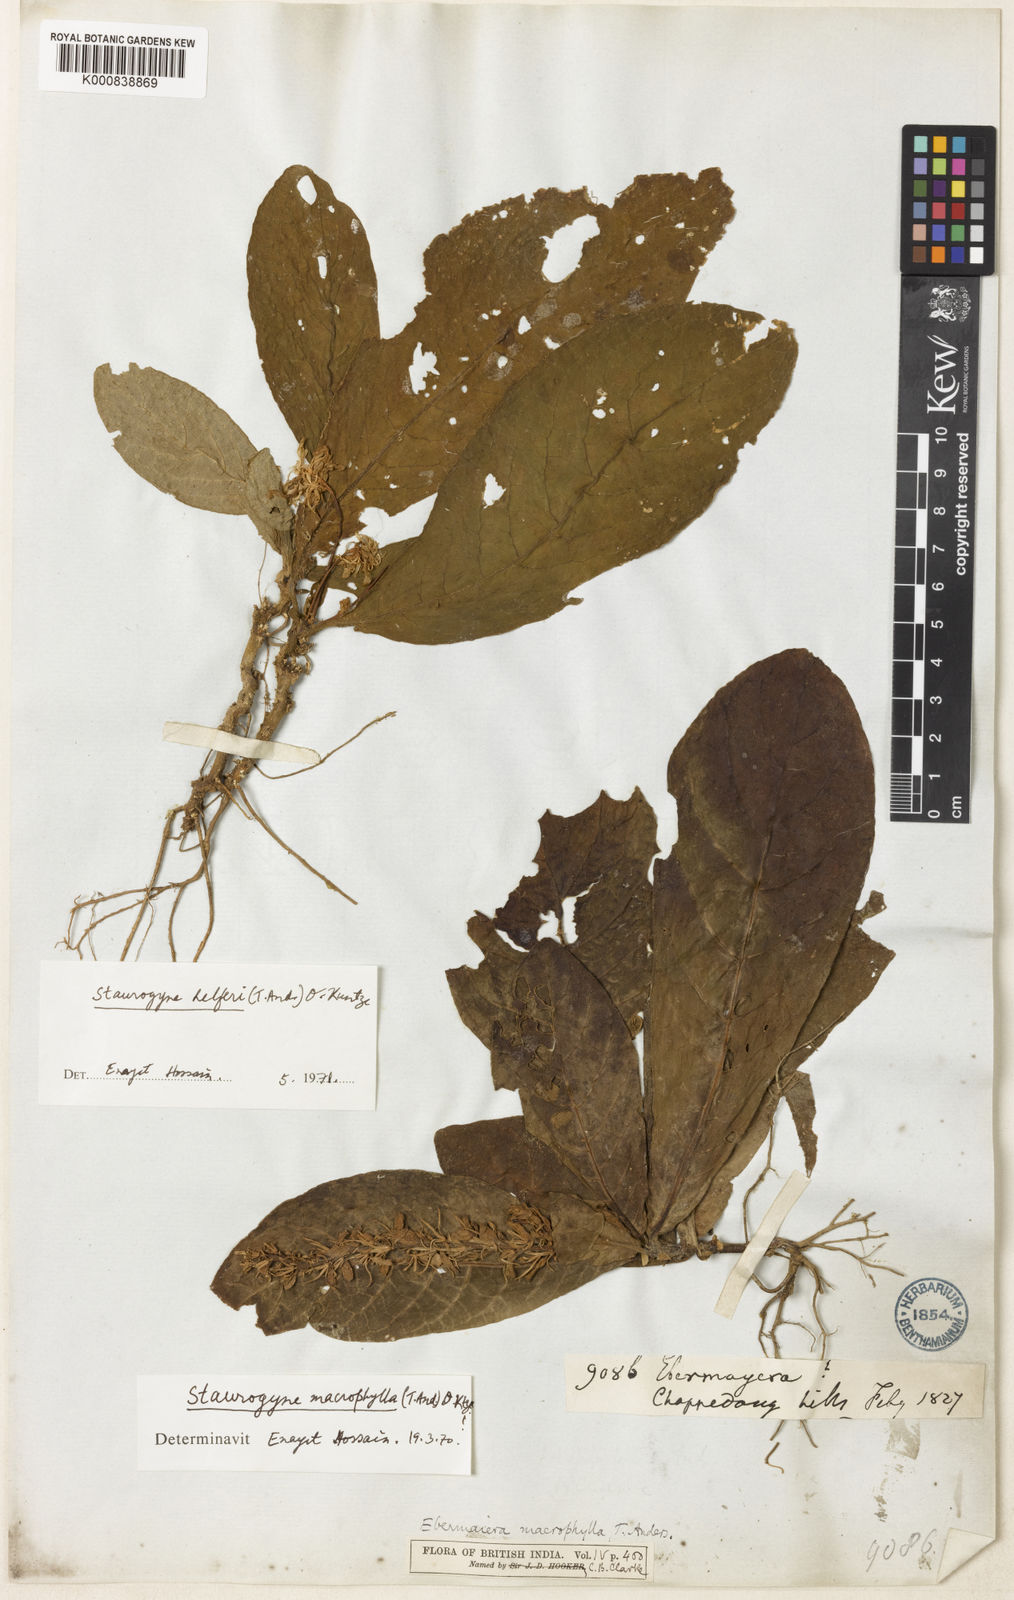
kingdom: Plantae
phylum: Tracheophyta
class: Magnoliopsida
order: Lamiales
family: Acanthaceae
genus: Staurogyne
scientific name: Staurogyne macrophylla
